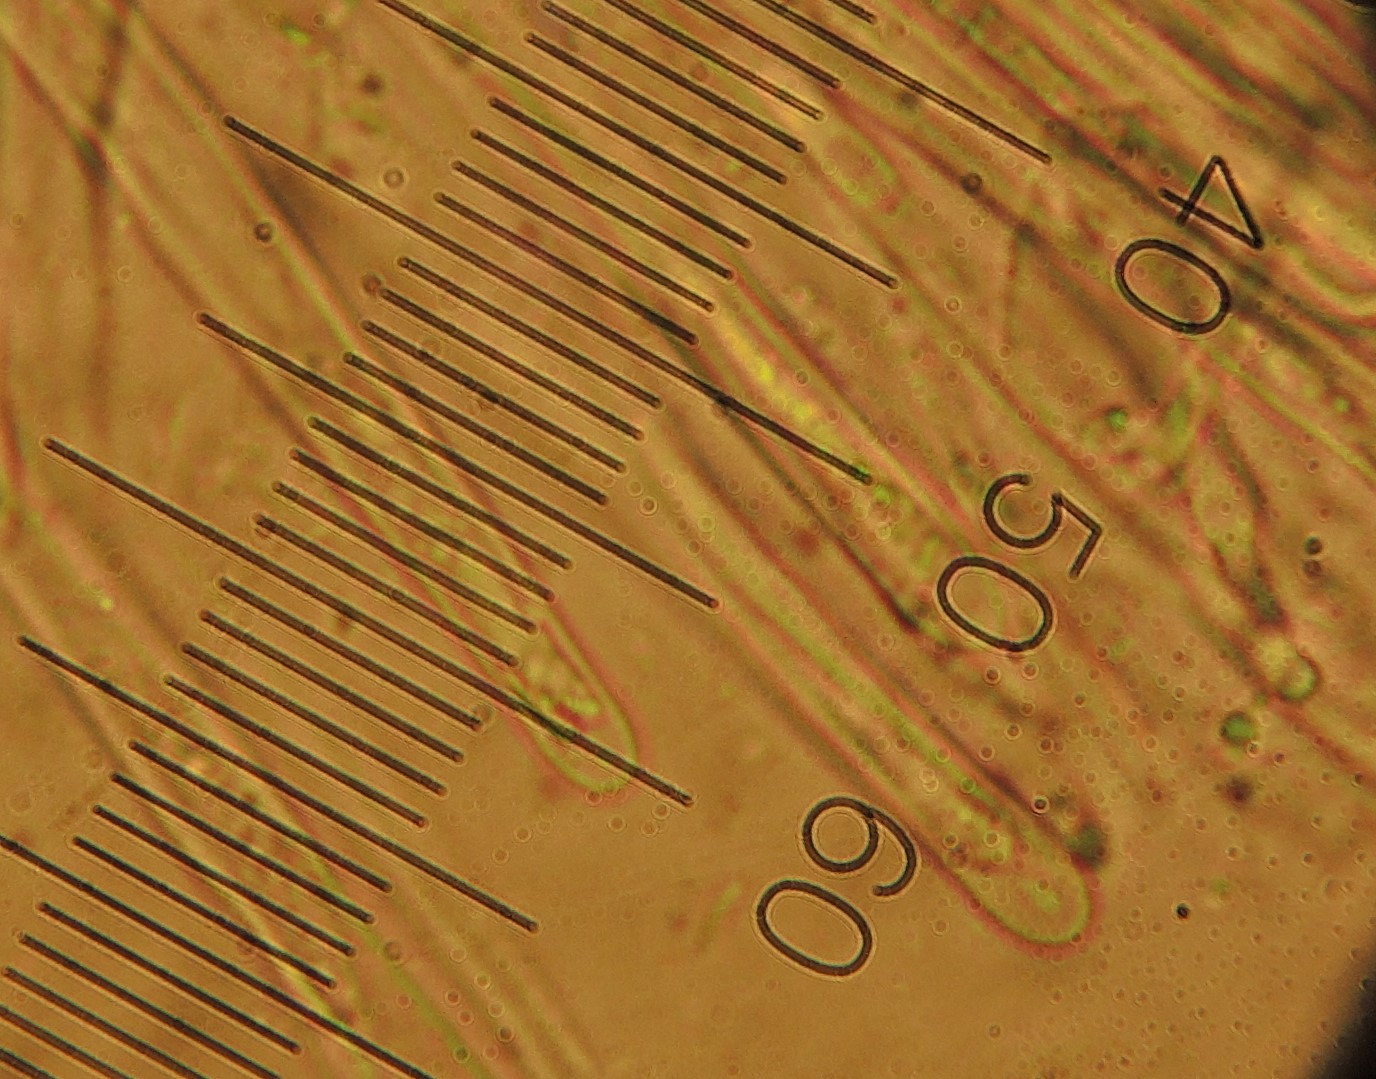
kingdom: Fungi
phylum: Ascomycota
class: Lecanoromycetes
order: Ostropales
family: Stictidaceae
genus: Stictis
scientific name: Stictis radiata
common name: tandet barkhul
